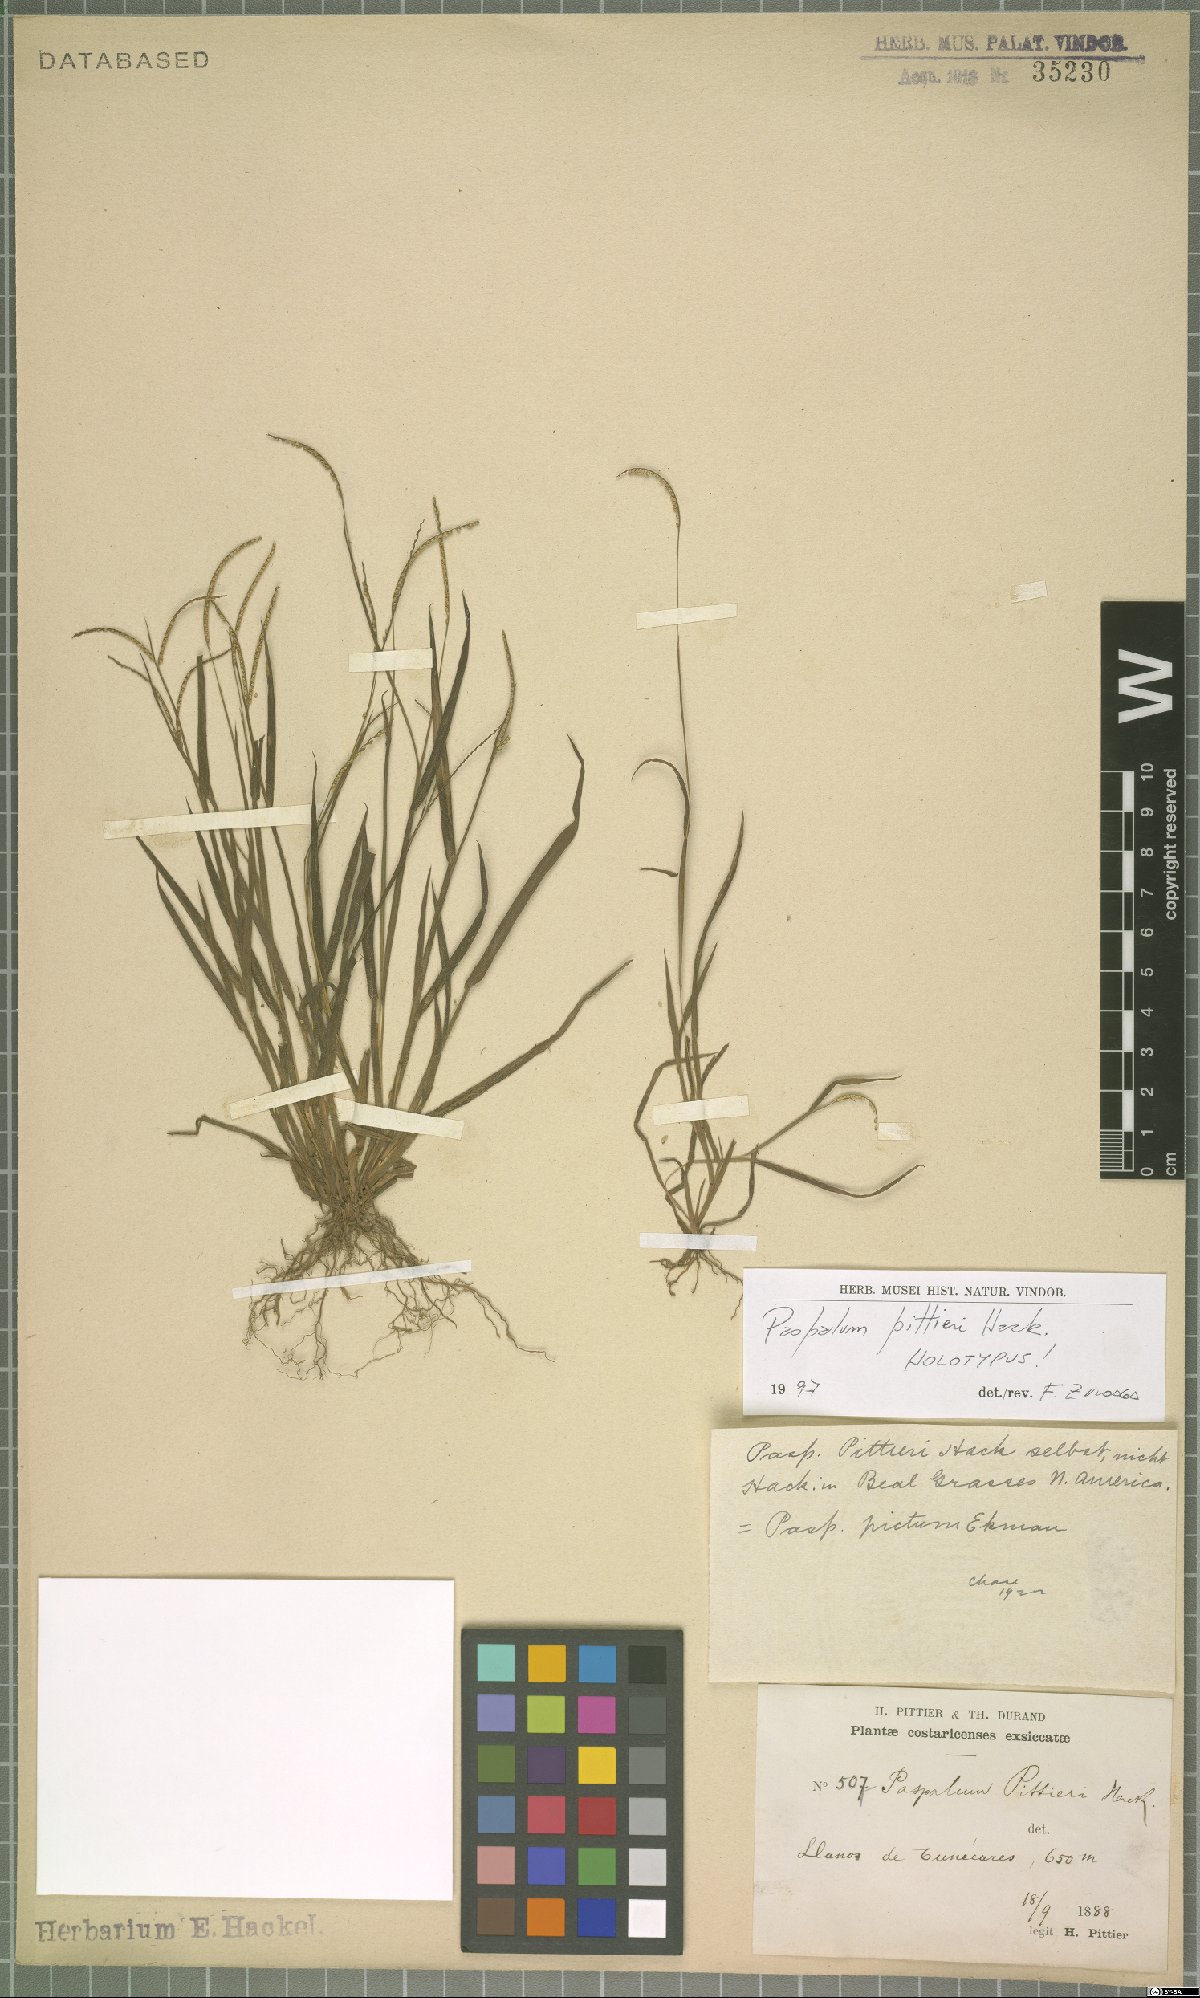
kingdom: Plantae
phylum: Tracheophyta
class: Liliopsida
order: Poales
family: Poaceae
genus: Paspalum
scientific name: Paspalum clavuliferum
